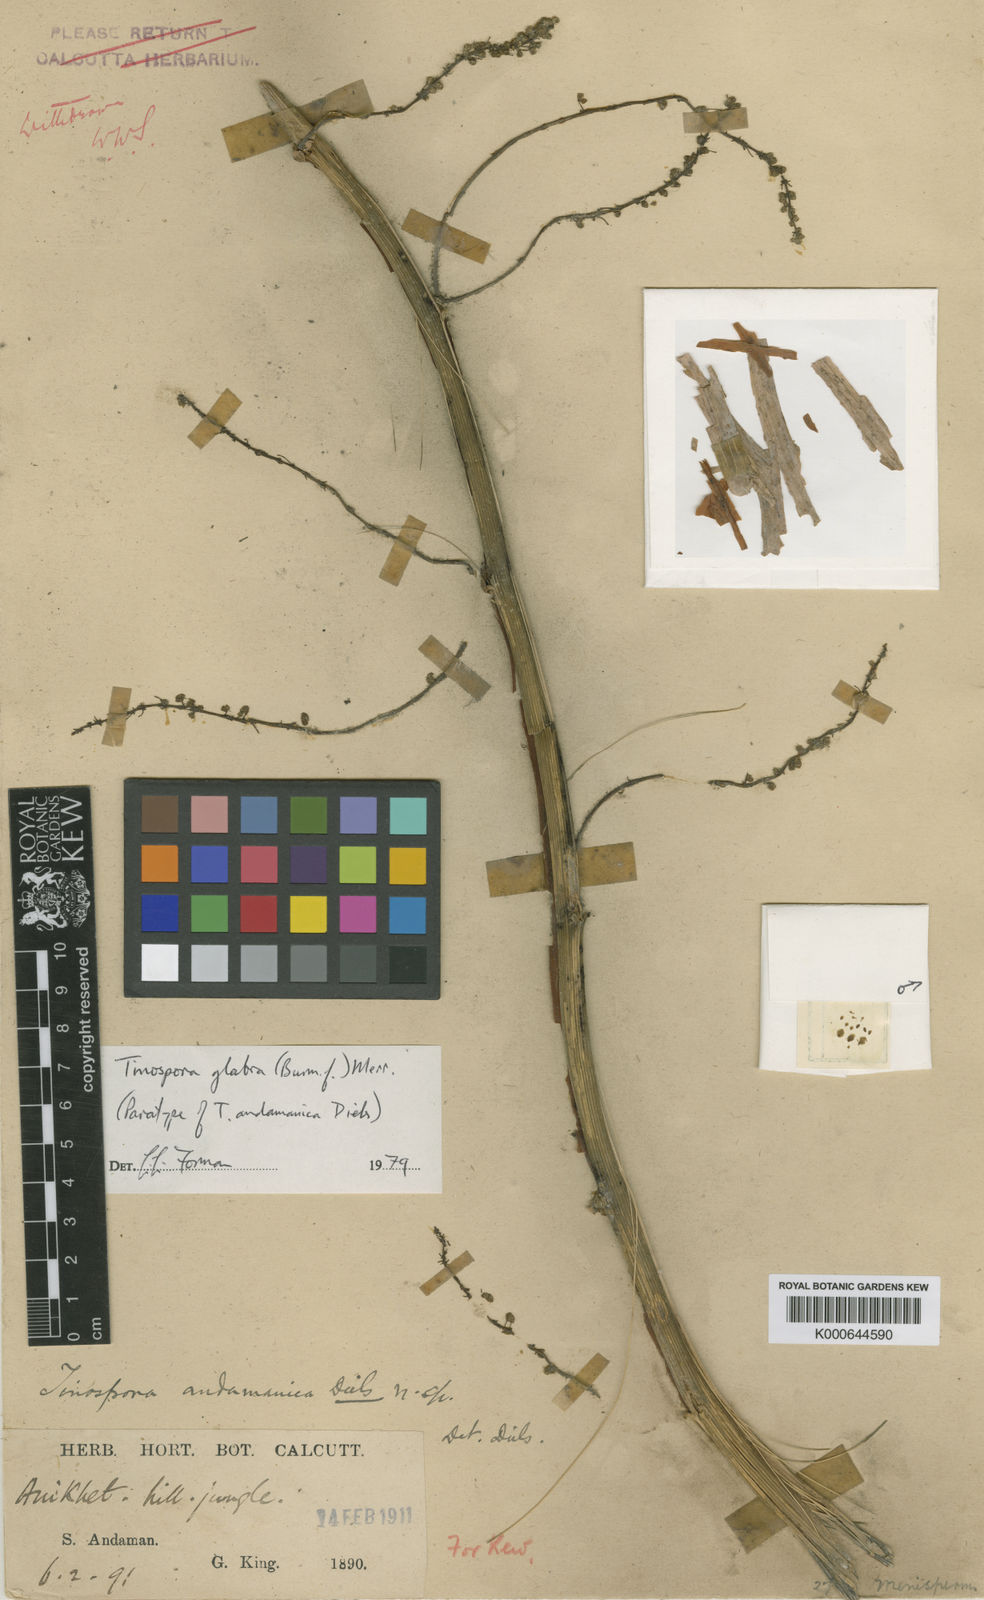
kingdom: Plantae
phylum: Tracheophyta
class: Magnoliopsida
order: Ranunculales
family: Menispermaceae
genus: Tinospora
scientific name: Tinospora glabra
